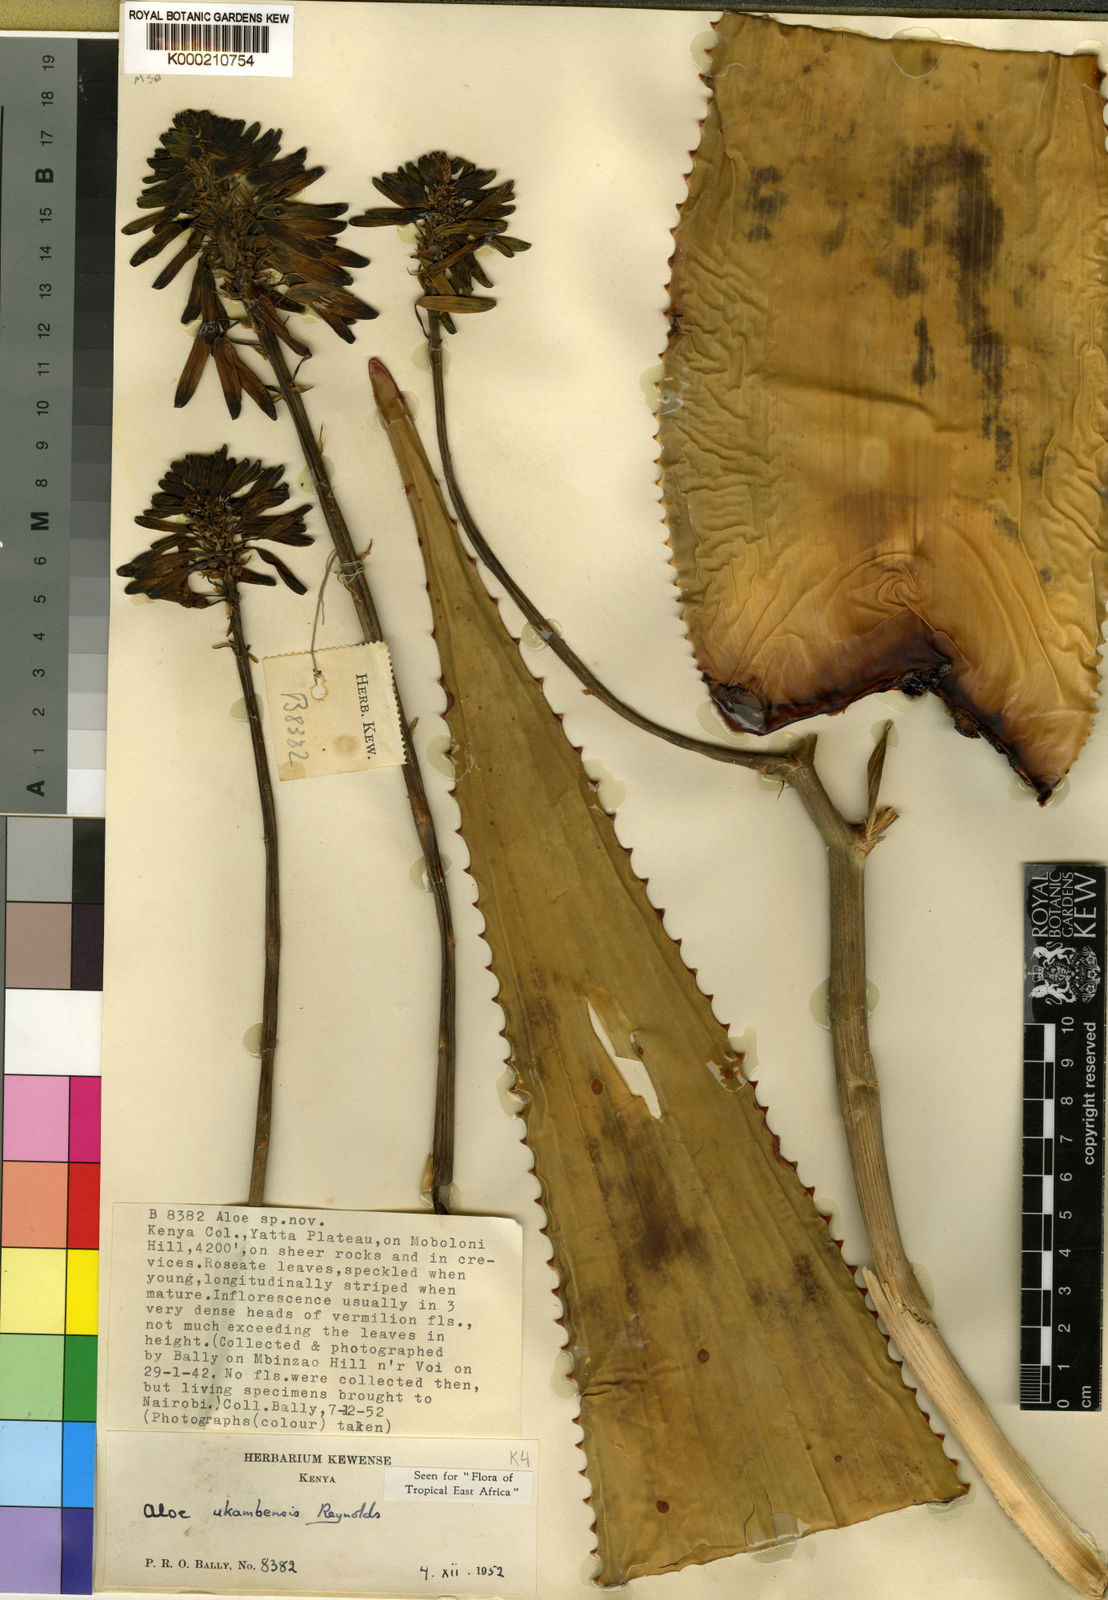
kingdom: Plantae
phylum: Tracheophyta
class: Liliopsida
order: Asparagales
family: Asphodelaceae
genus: Aloe
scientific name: Aloe ukambensis
